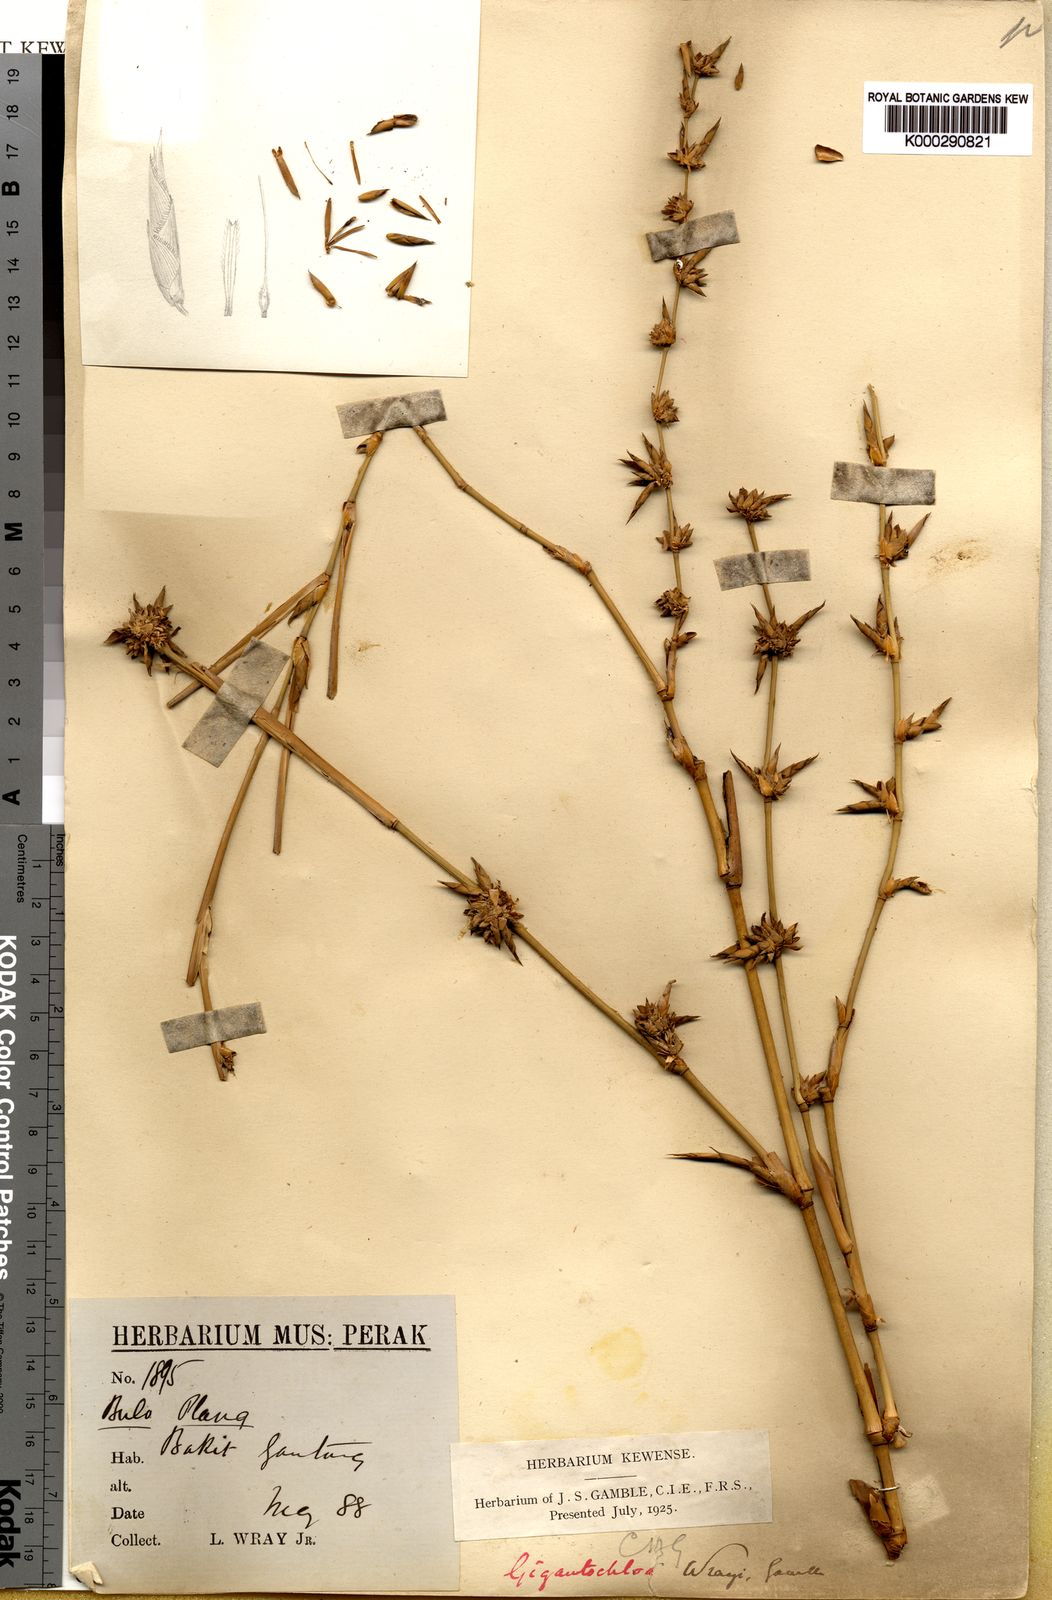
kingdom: Plantae
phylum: Tracheophyta
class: Liliopsida
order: Poales
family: Poaceae
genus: Gigantochloa
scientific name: Gigantochloa wrayi
